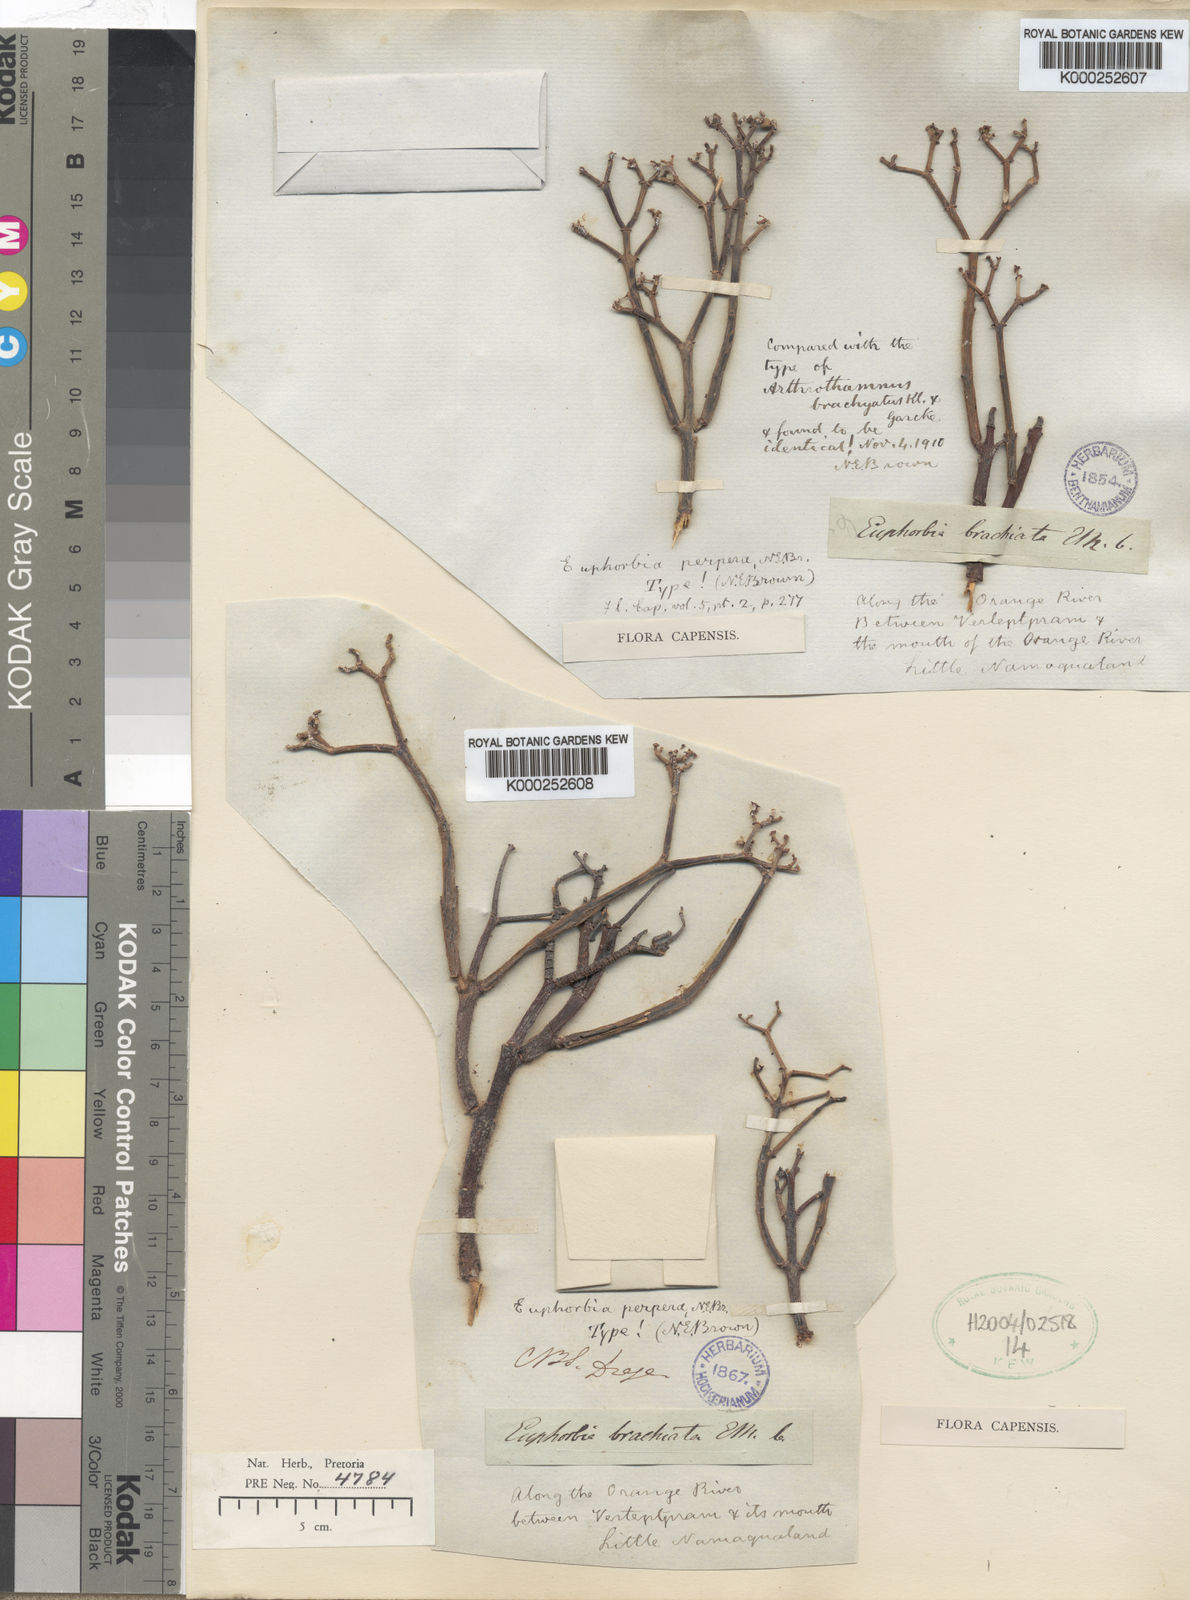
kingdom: Plantae
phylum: Tracheophyta
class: Magnoliopsida
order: Malpighiales
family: Euphorbiaceae
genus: Euphorbia
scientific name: Euphorbia rhombifolia
